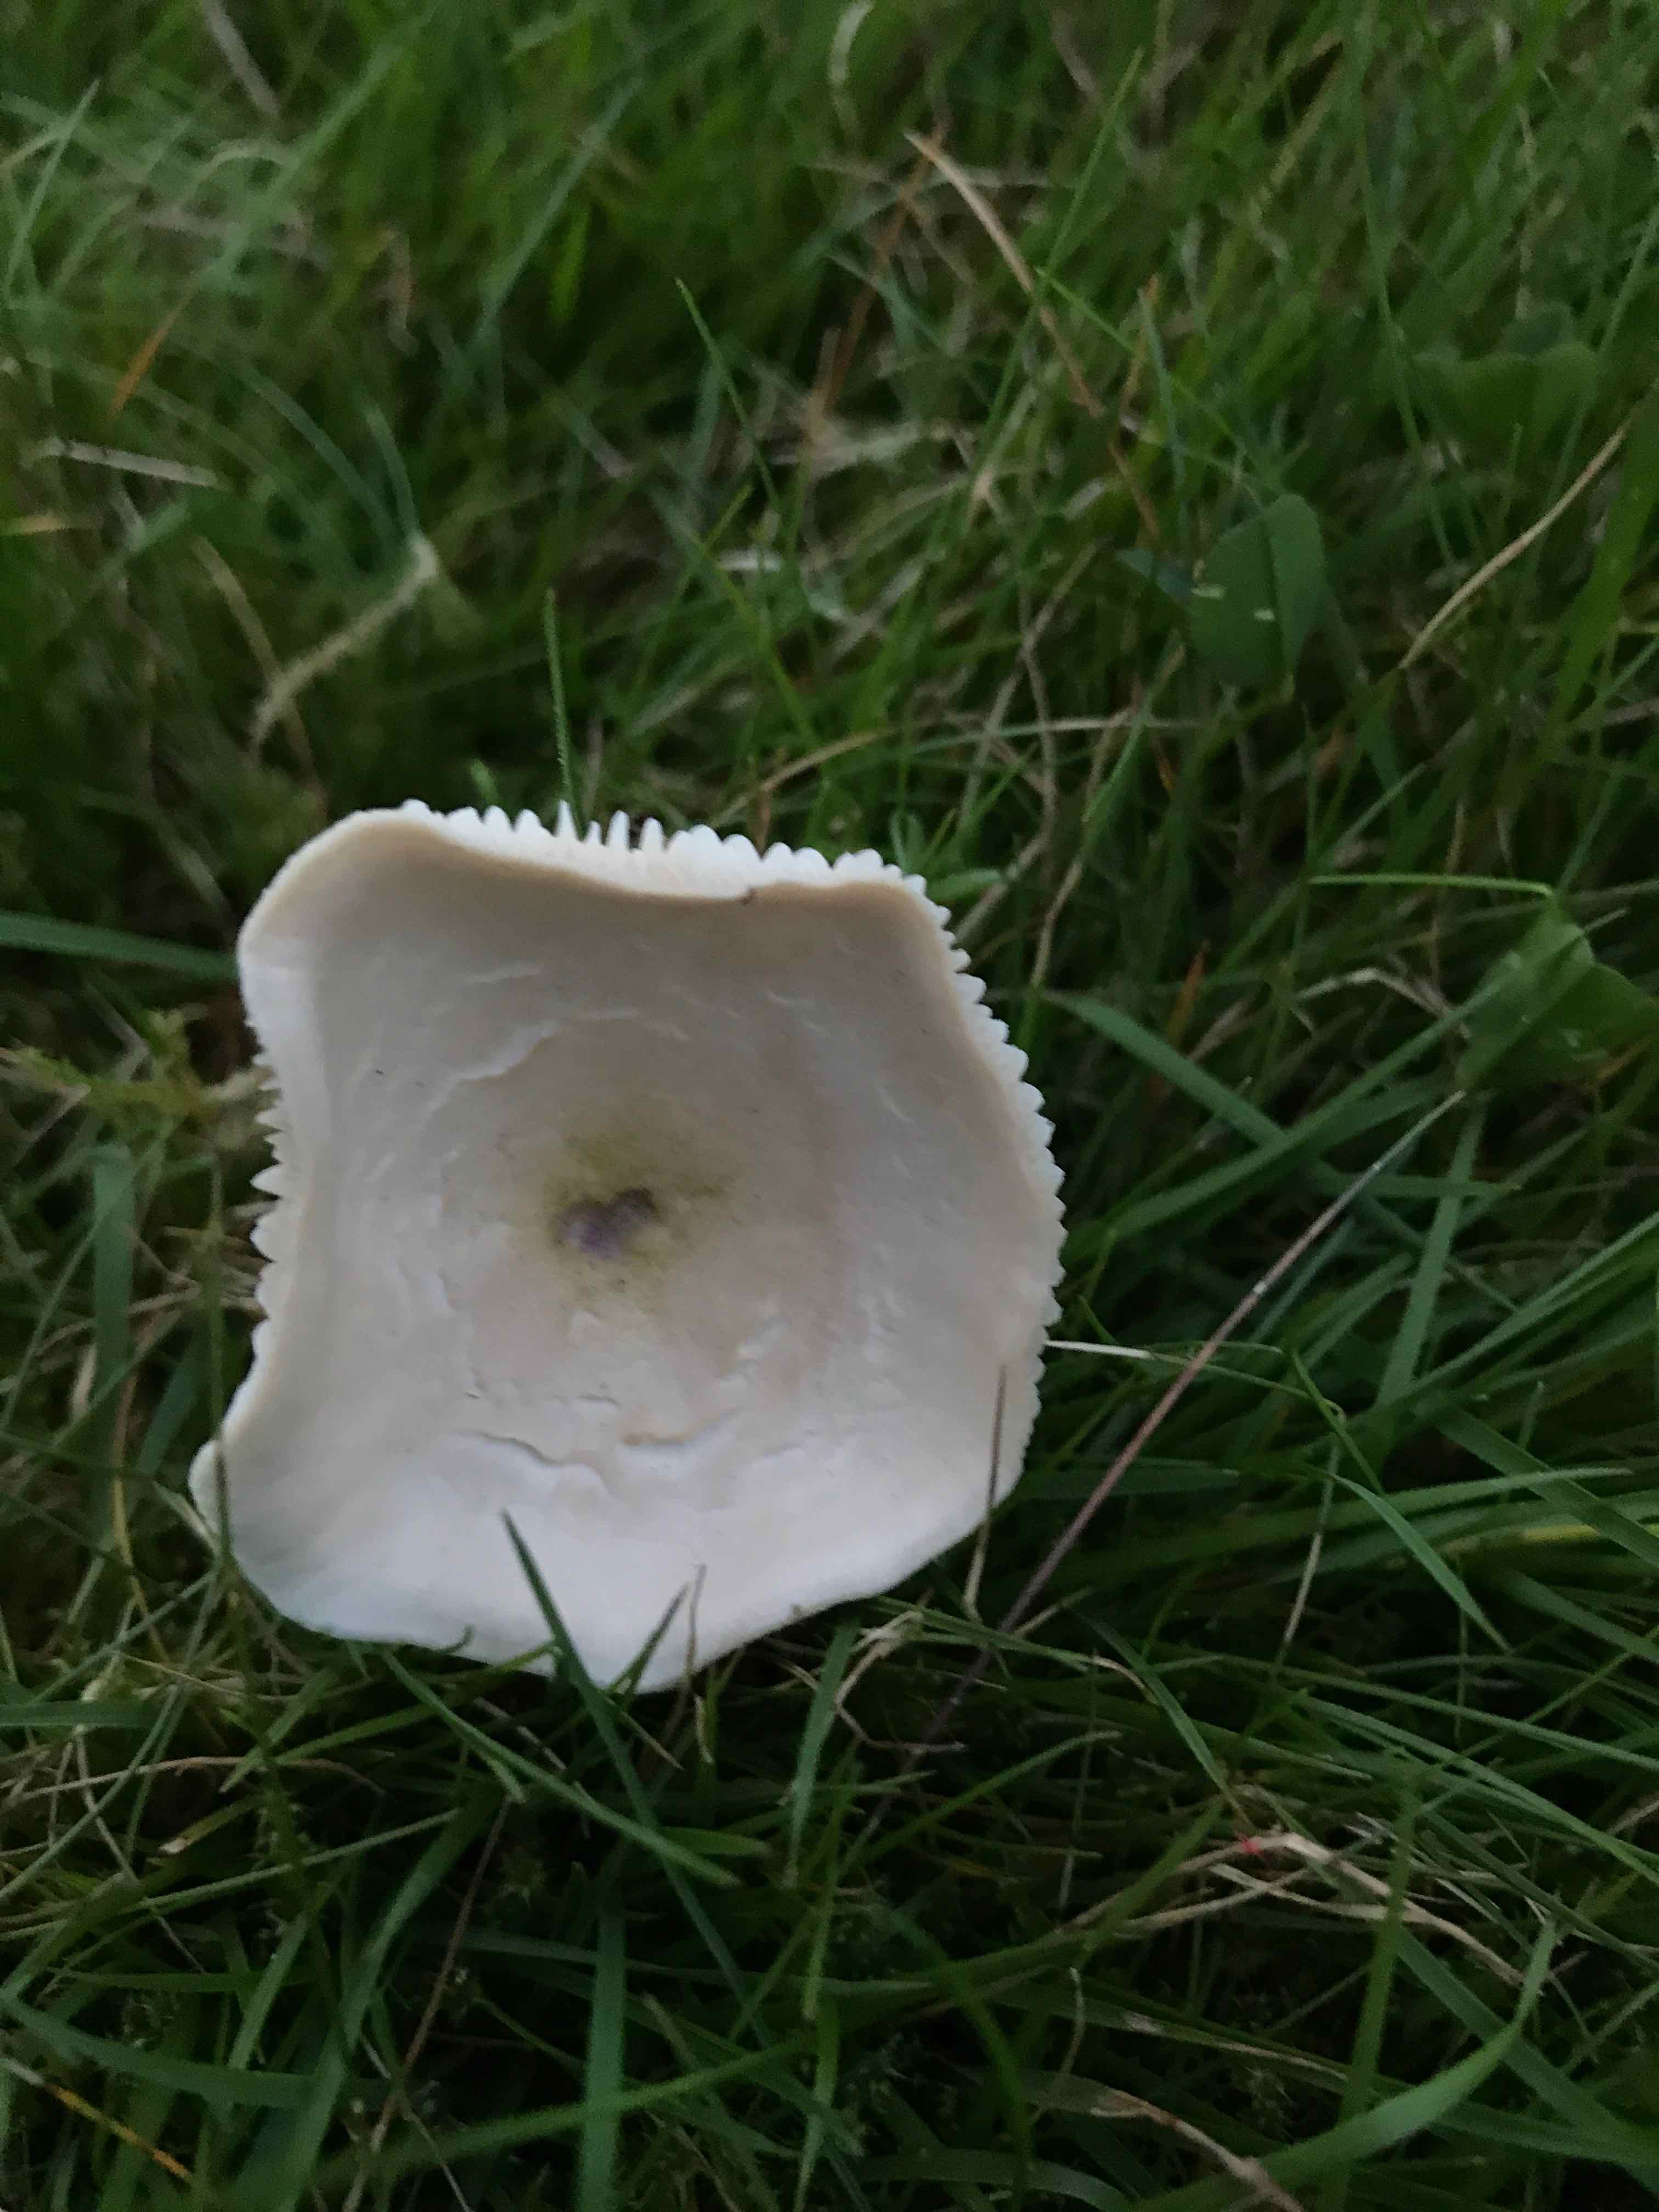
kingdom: Fungi
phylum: Basidiomycota
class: Agaricomycetes
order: Agaricales
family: Hygrophoraceae
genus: Cuphophyllus
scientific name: Cuphophyllus
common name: vokshat
